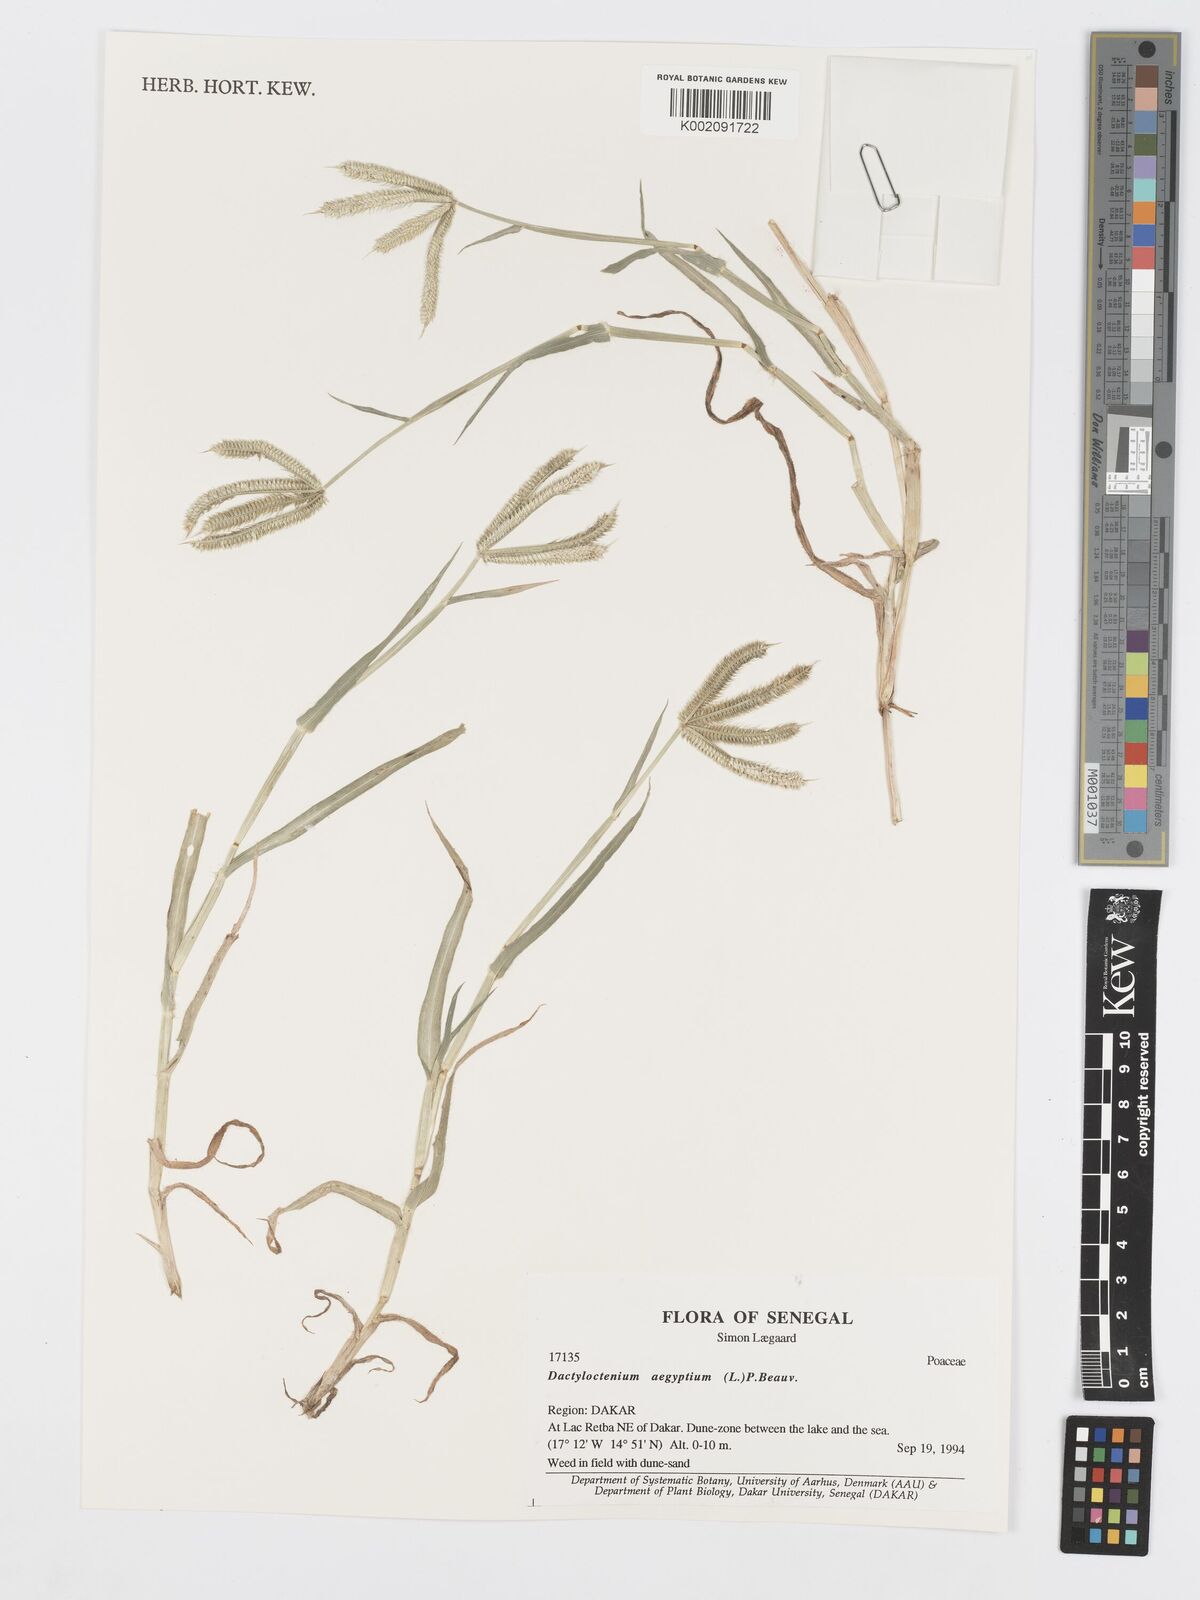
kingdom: Plantae
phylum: Tracheophyta
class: Liliopsida
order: Poales
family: Poaceae
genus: Dactyloctenium
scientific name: Dactyloctenium aegyptium
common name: Egyptian grass
